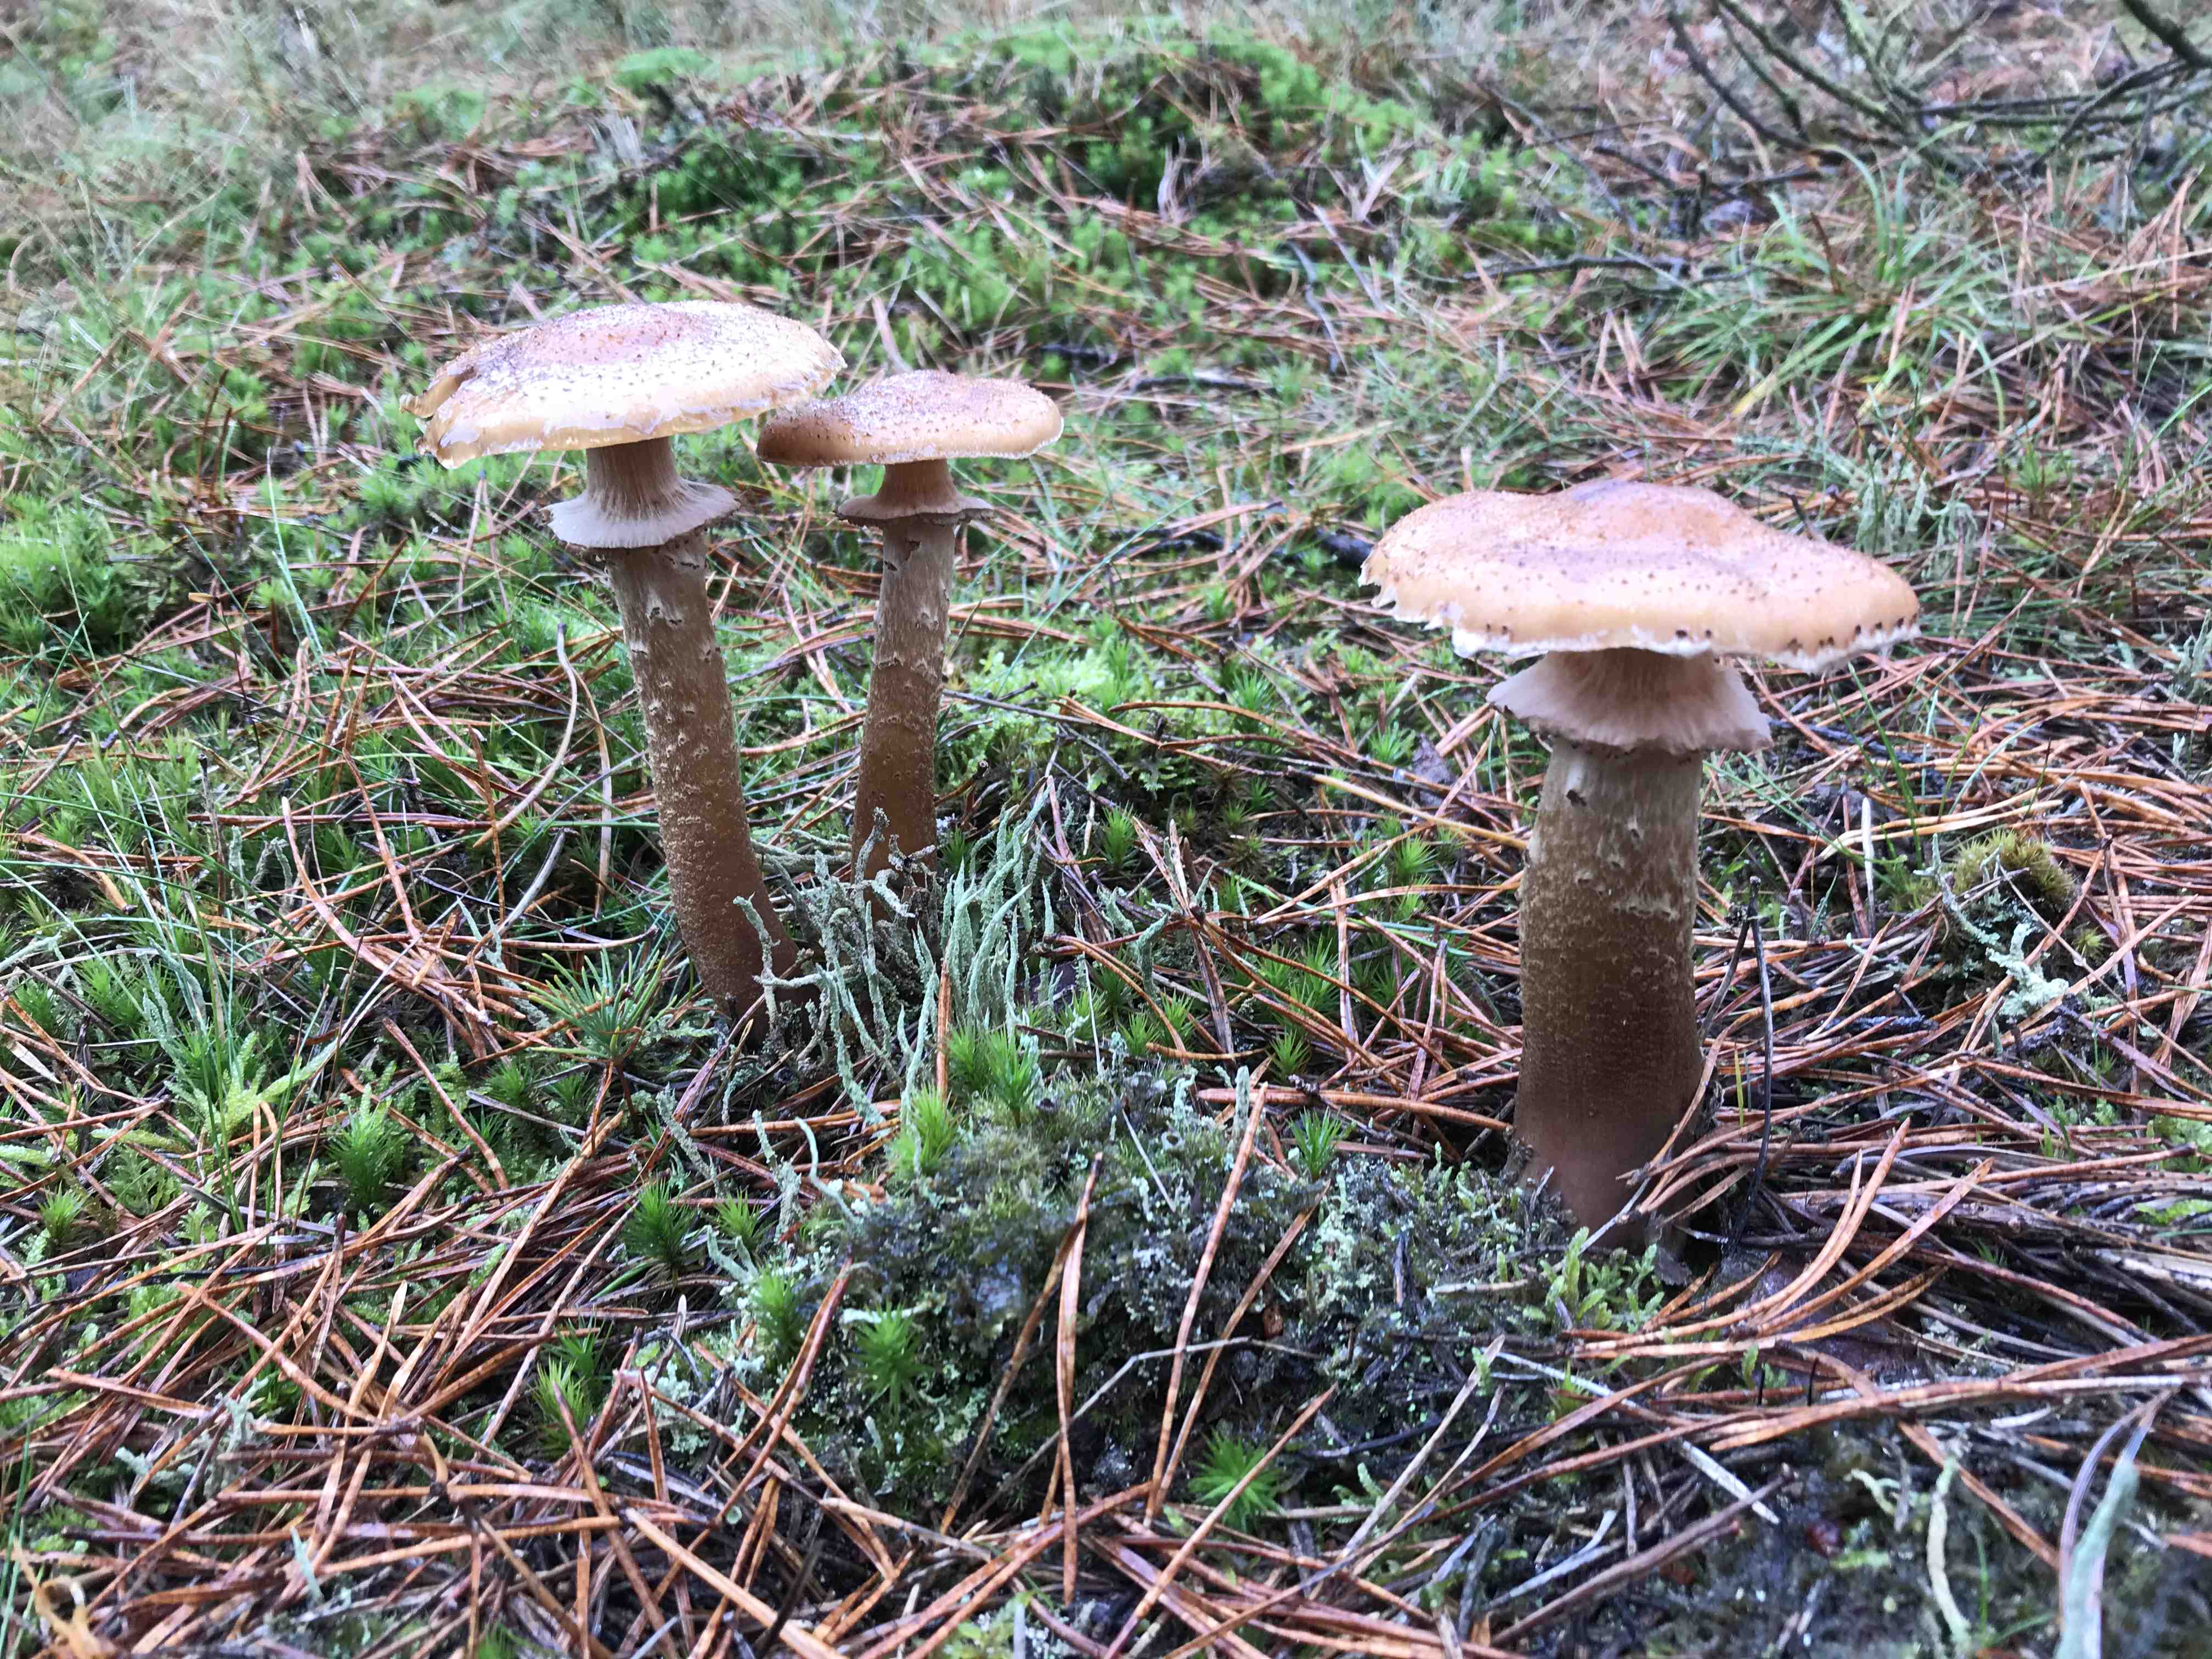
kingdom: Fungi
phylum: Basidiomycota
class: Agaricomycetes
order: Agaricales
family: Physalacriaceae
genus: Armillaria
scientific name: Armillaria ostoyae
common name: mørk honningsvamp
